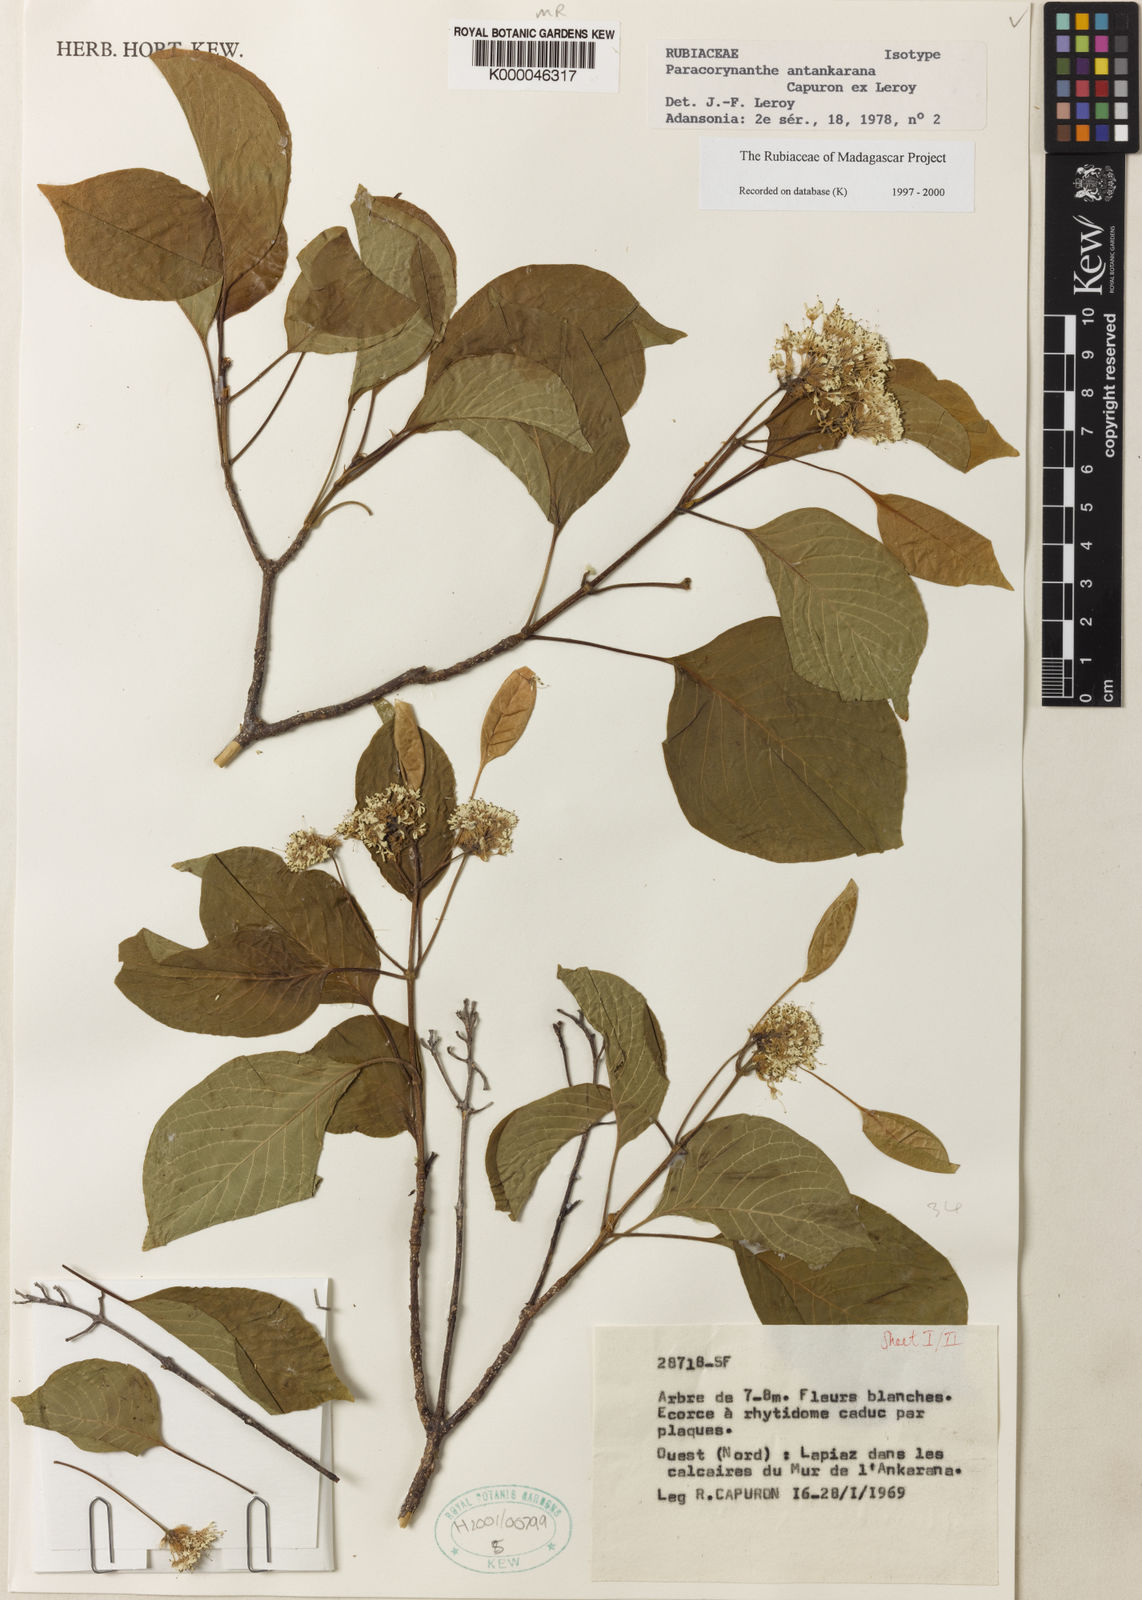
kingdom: Plantae
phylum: Tracheophyta
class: Magnoliopsida
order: Gentianales
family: Rubiaceae
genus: Paracorynanthe
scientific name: Paracorynanthe antankarana
